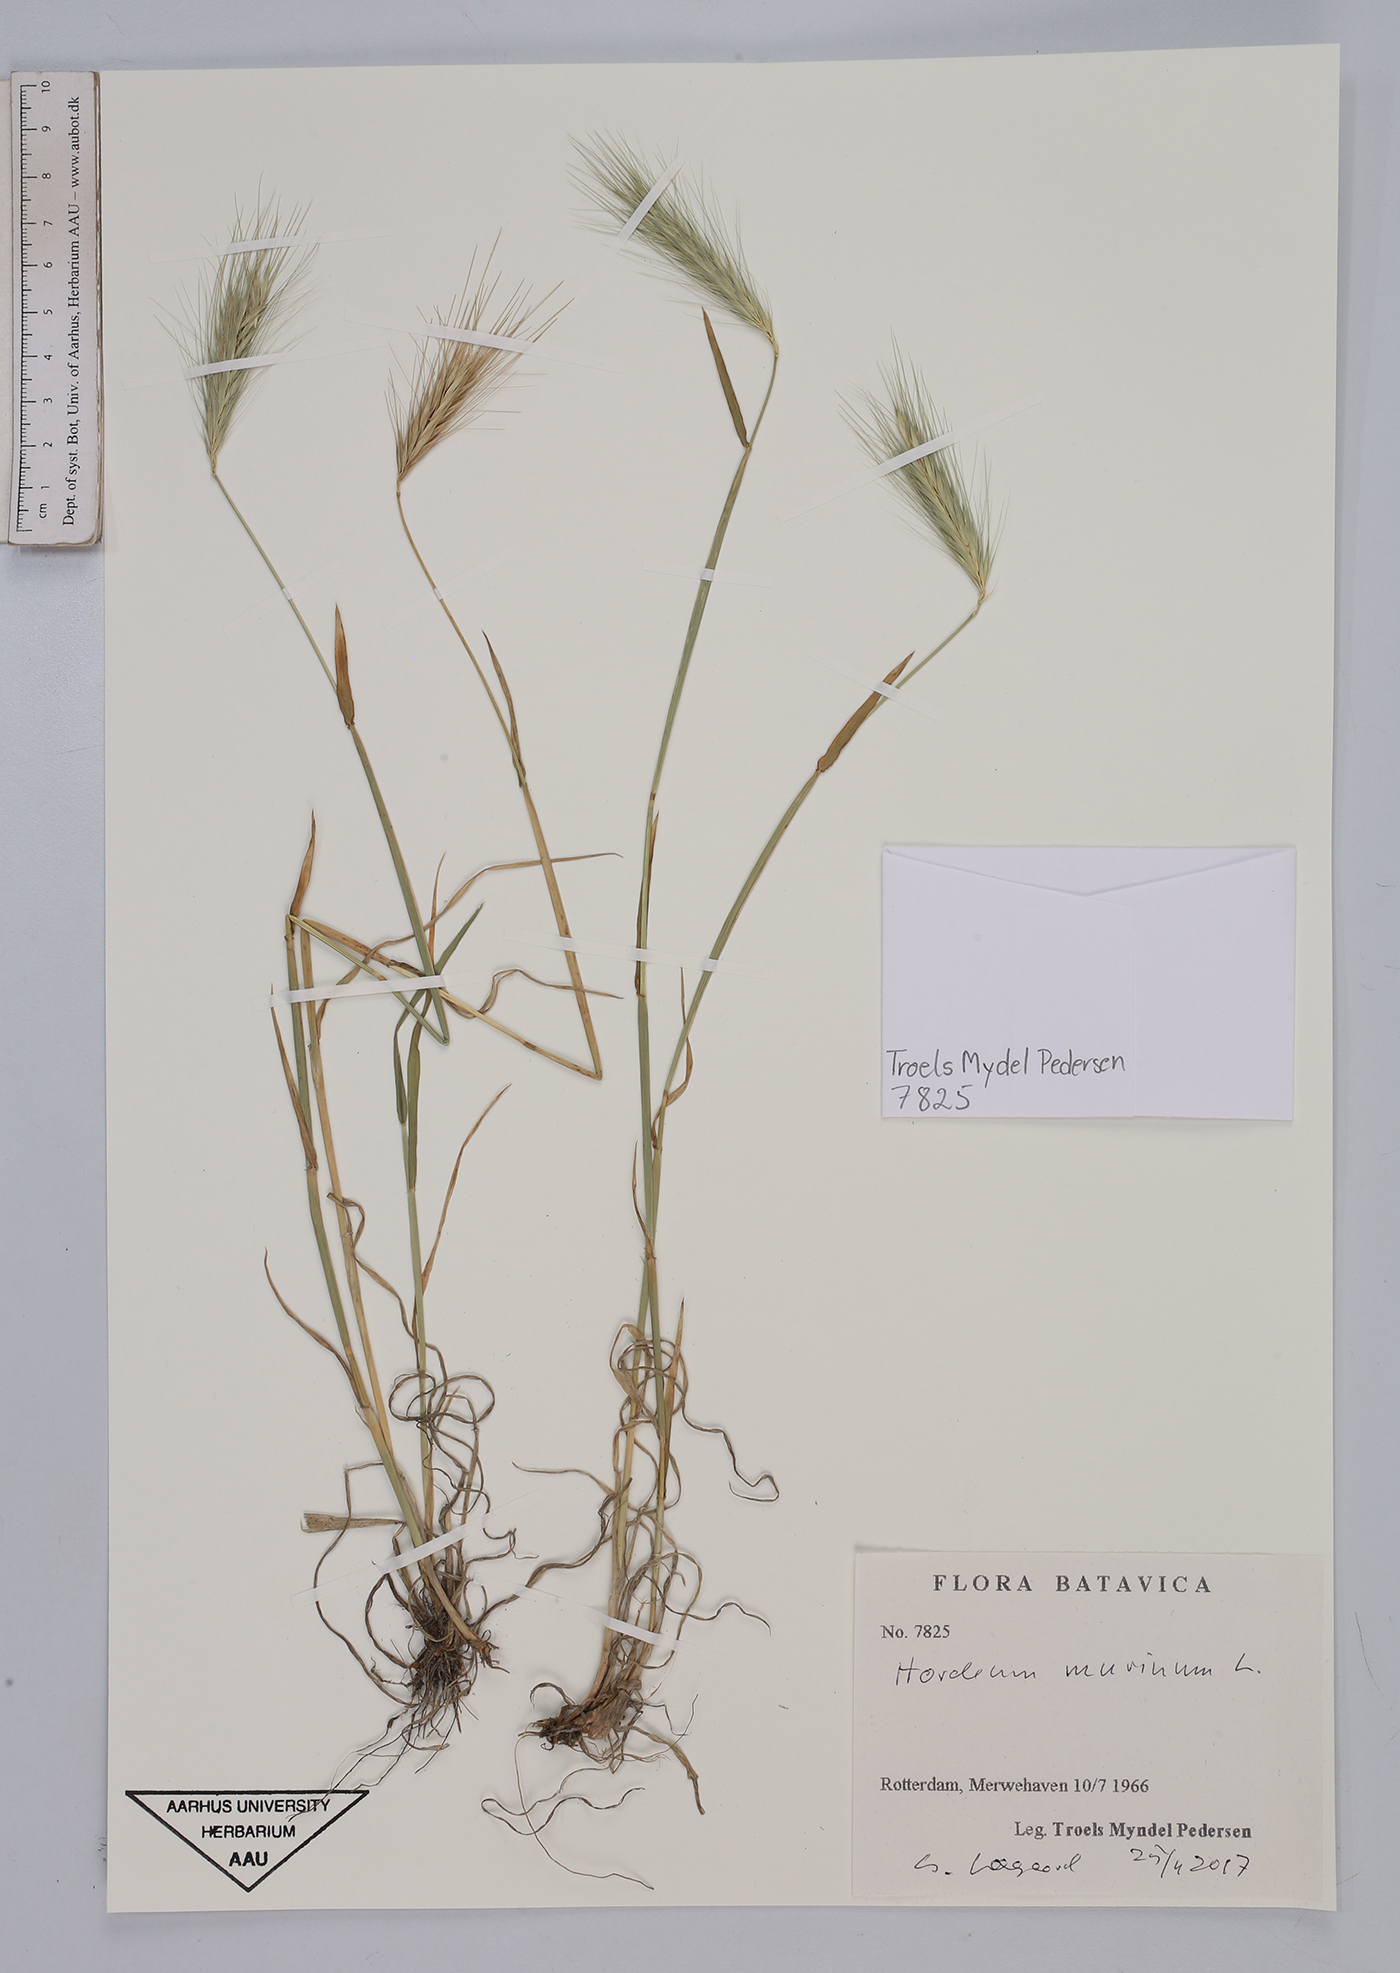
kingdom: Plantae
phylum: Tracheophyta
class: Liliopsida
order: Poales
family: Poaceae
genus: Hordeum
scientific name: Hordeum marinum
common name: Sea barley
